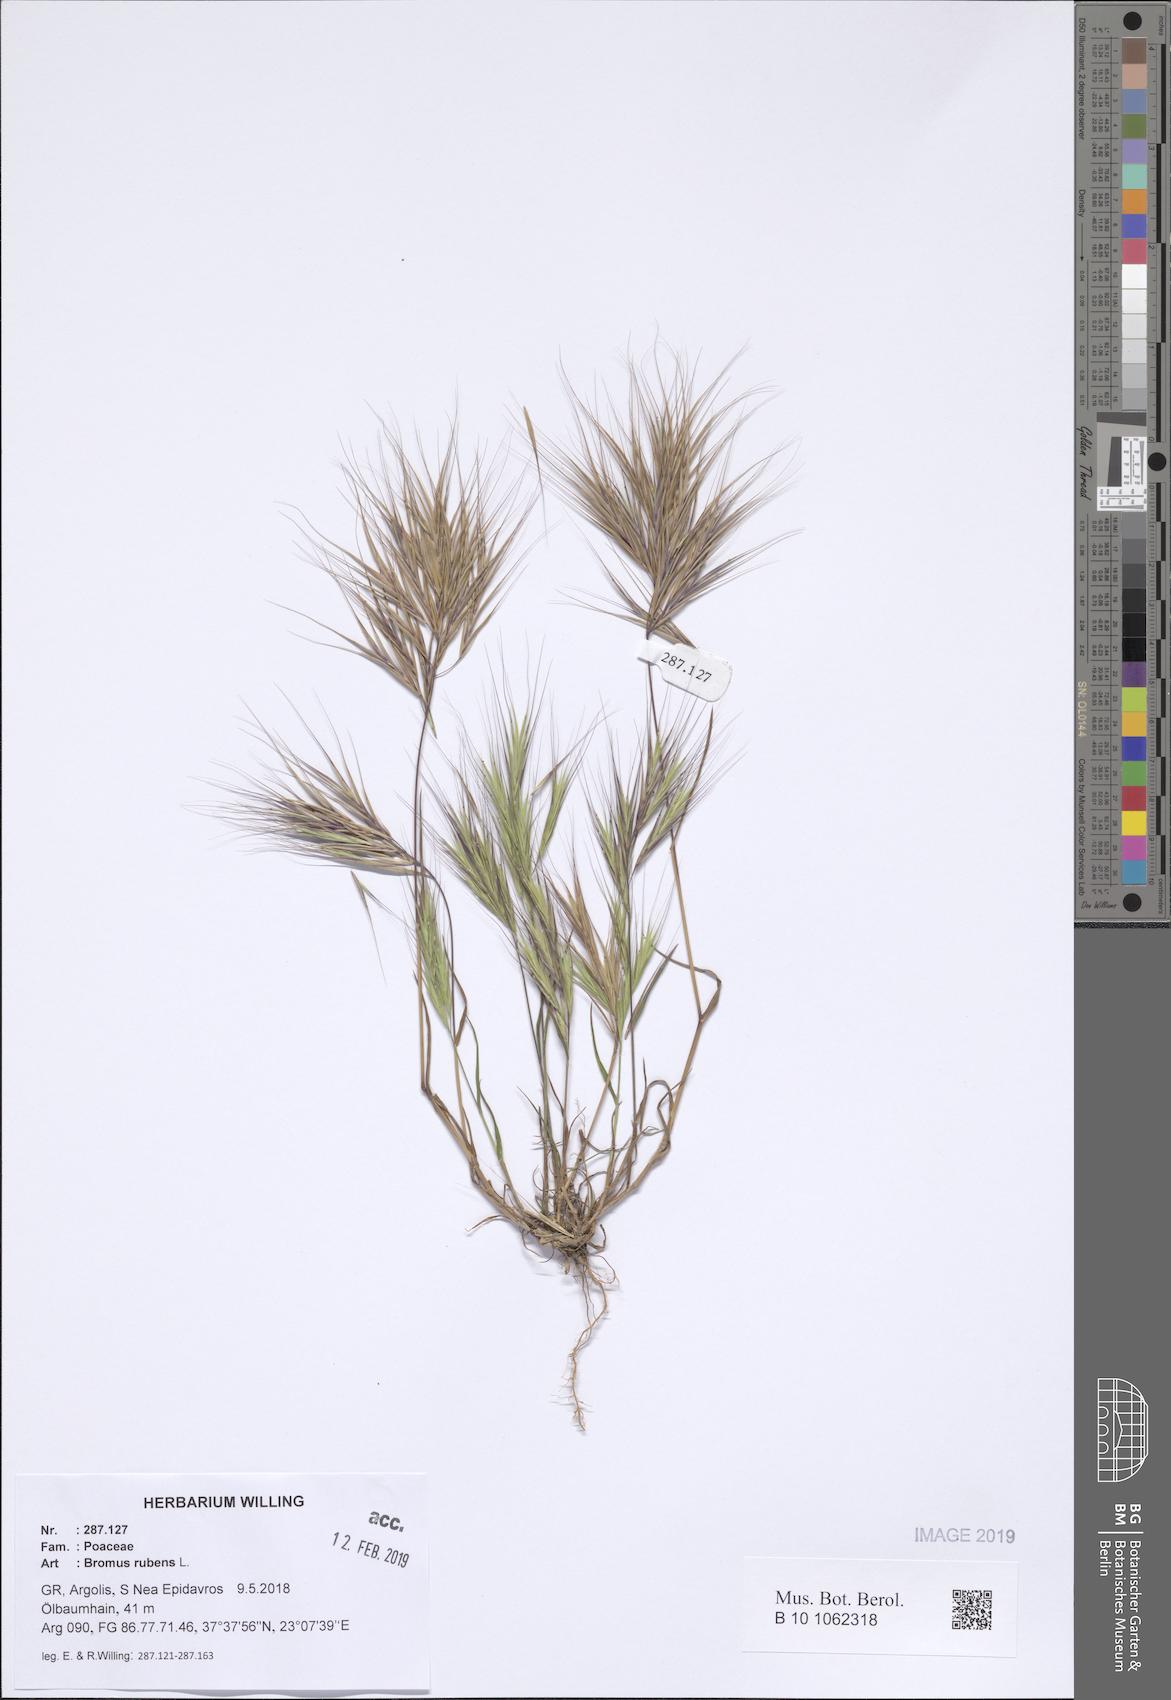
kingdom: Plantae
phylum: Tracheophyta
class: Liliopsida
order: Poales
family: Poaceae
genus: Bromus
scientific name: Bromus rubens
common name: Red brome
